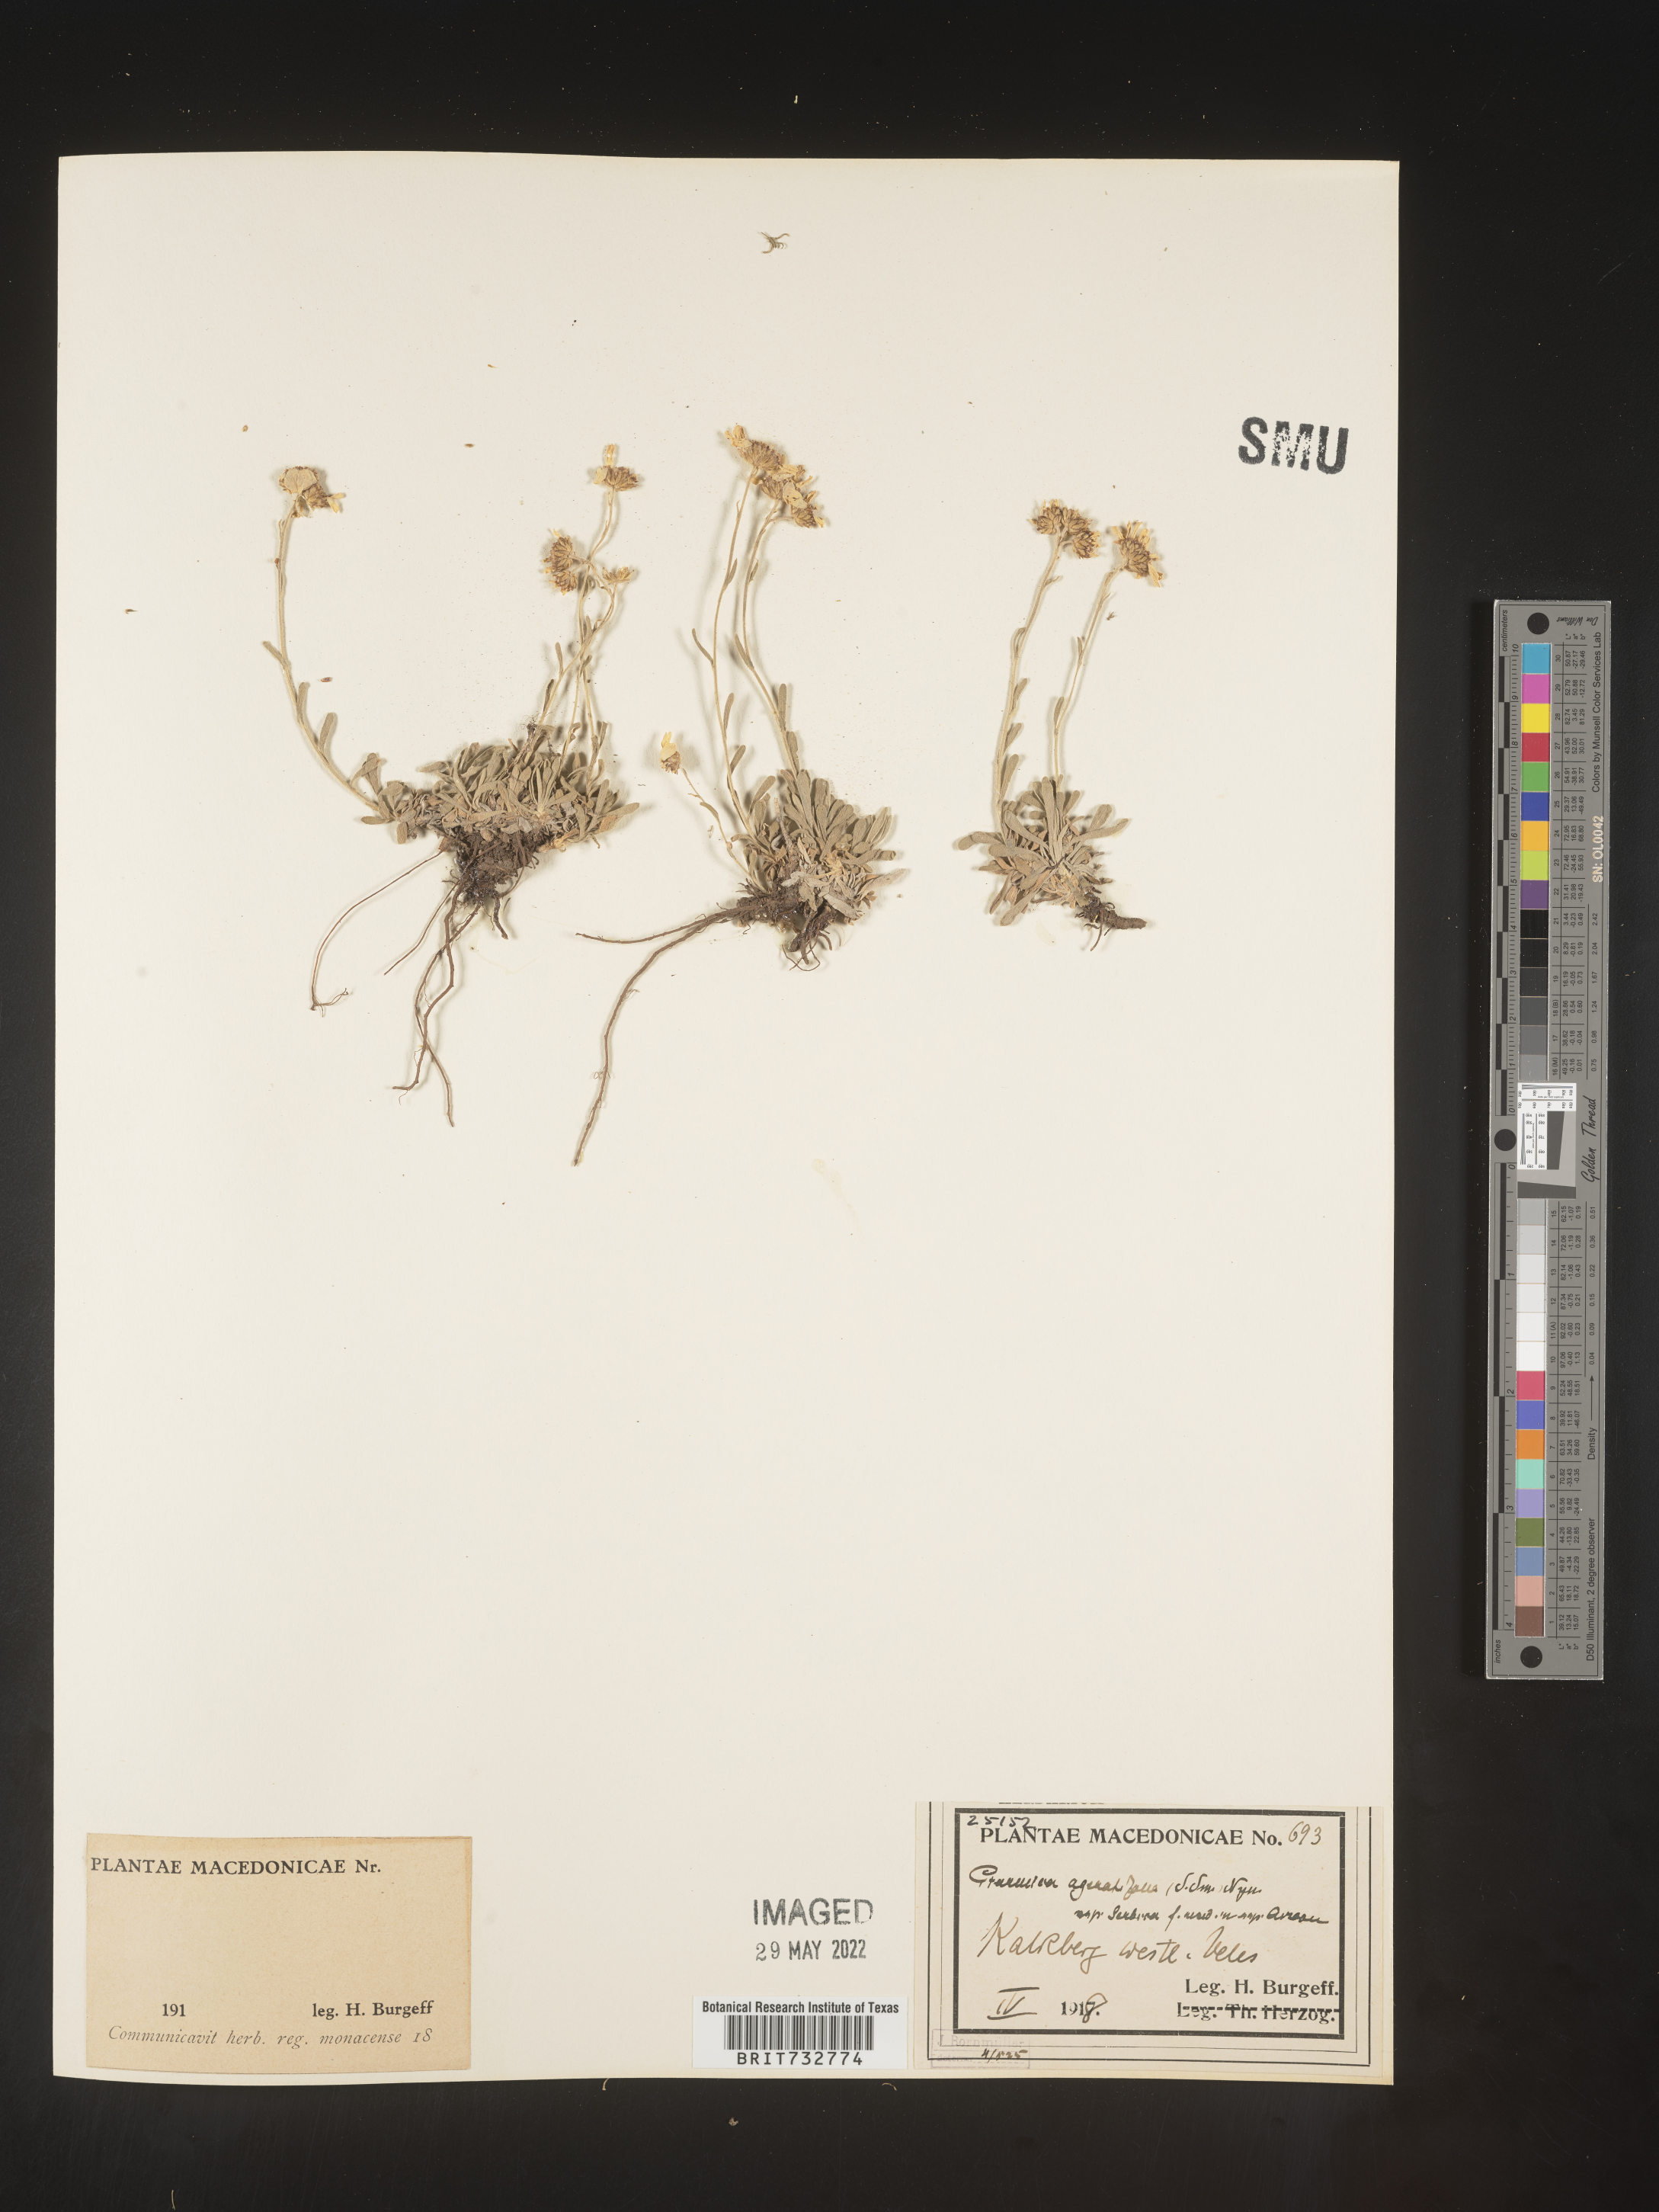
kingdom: Plantae
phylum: Tracheophyta
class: Magnoliopsida
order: Asterales
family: Asteraceae
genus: Matricaria
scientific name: Matricaria
